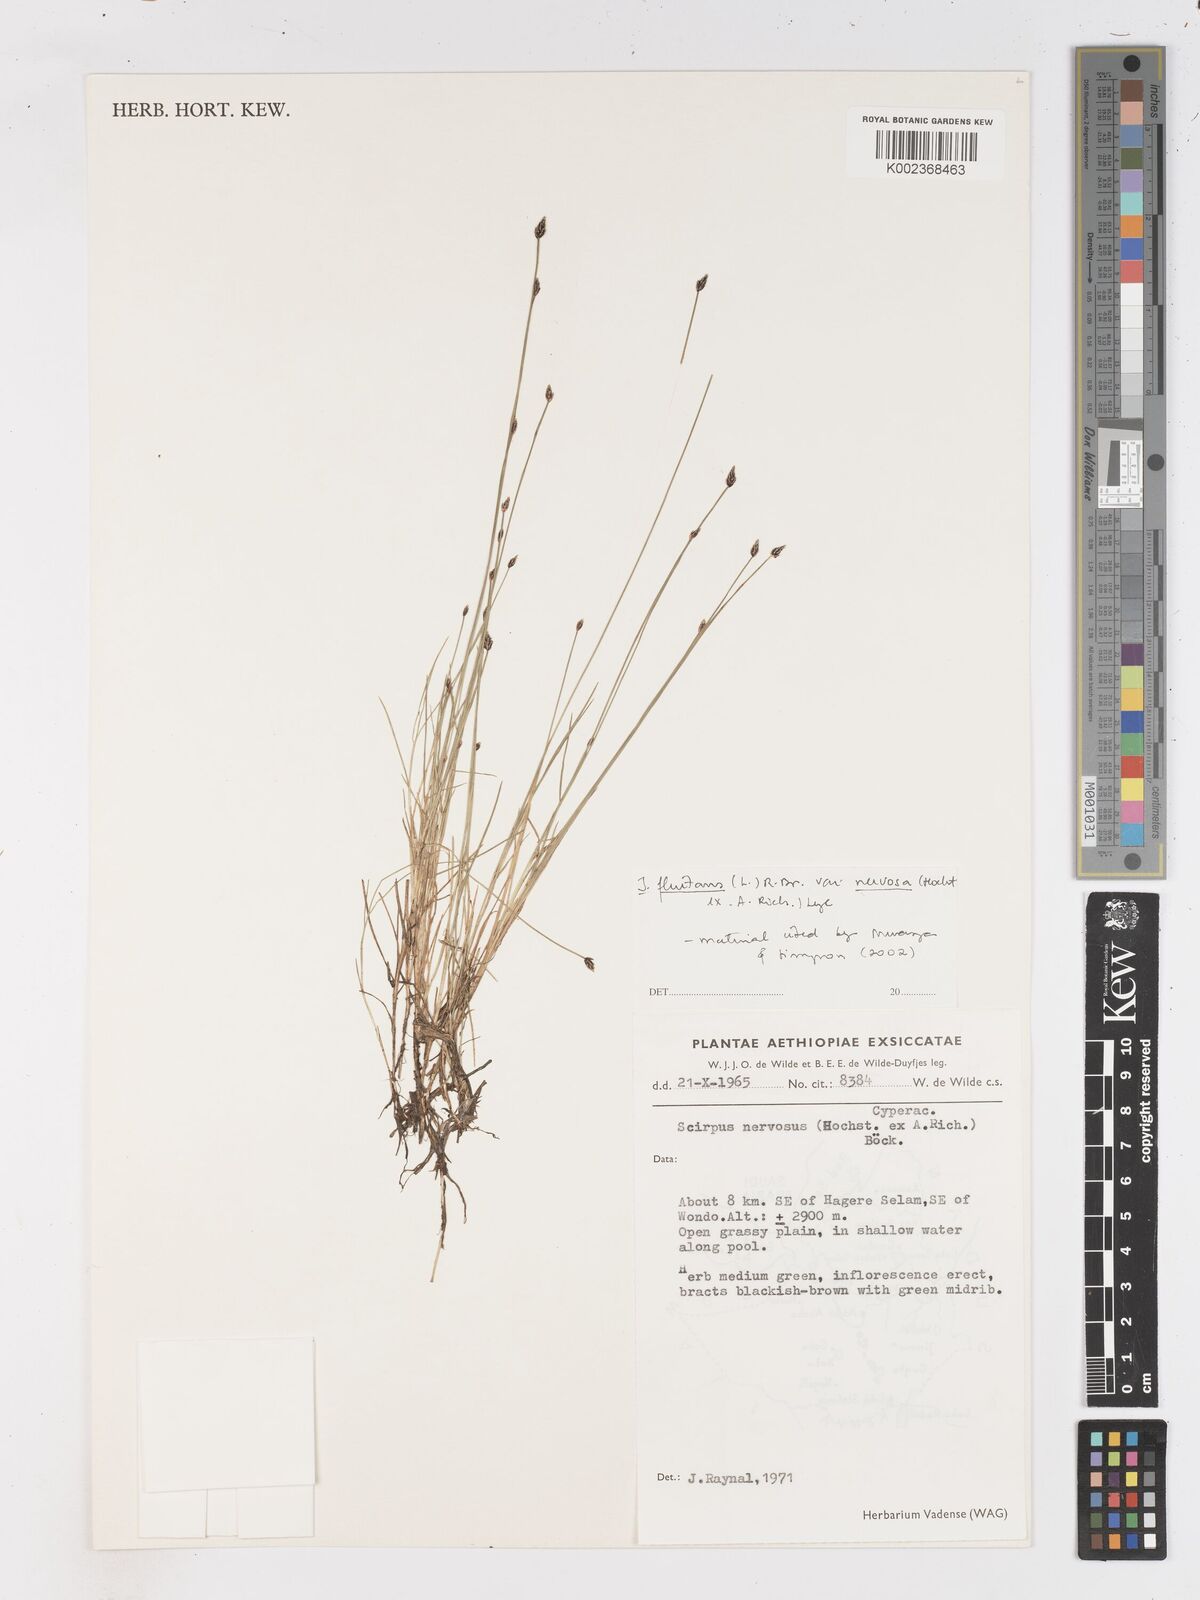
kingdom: Plantae
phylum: Tracheophyta
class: Liliopsida
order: Poales
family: Cyperaceae
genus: Isolepis
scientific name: Isolepis fluitans
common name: Floating club-rush
